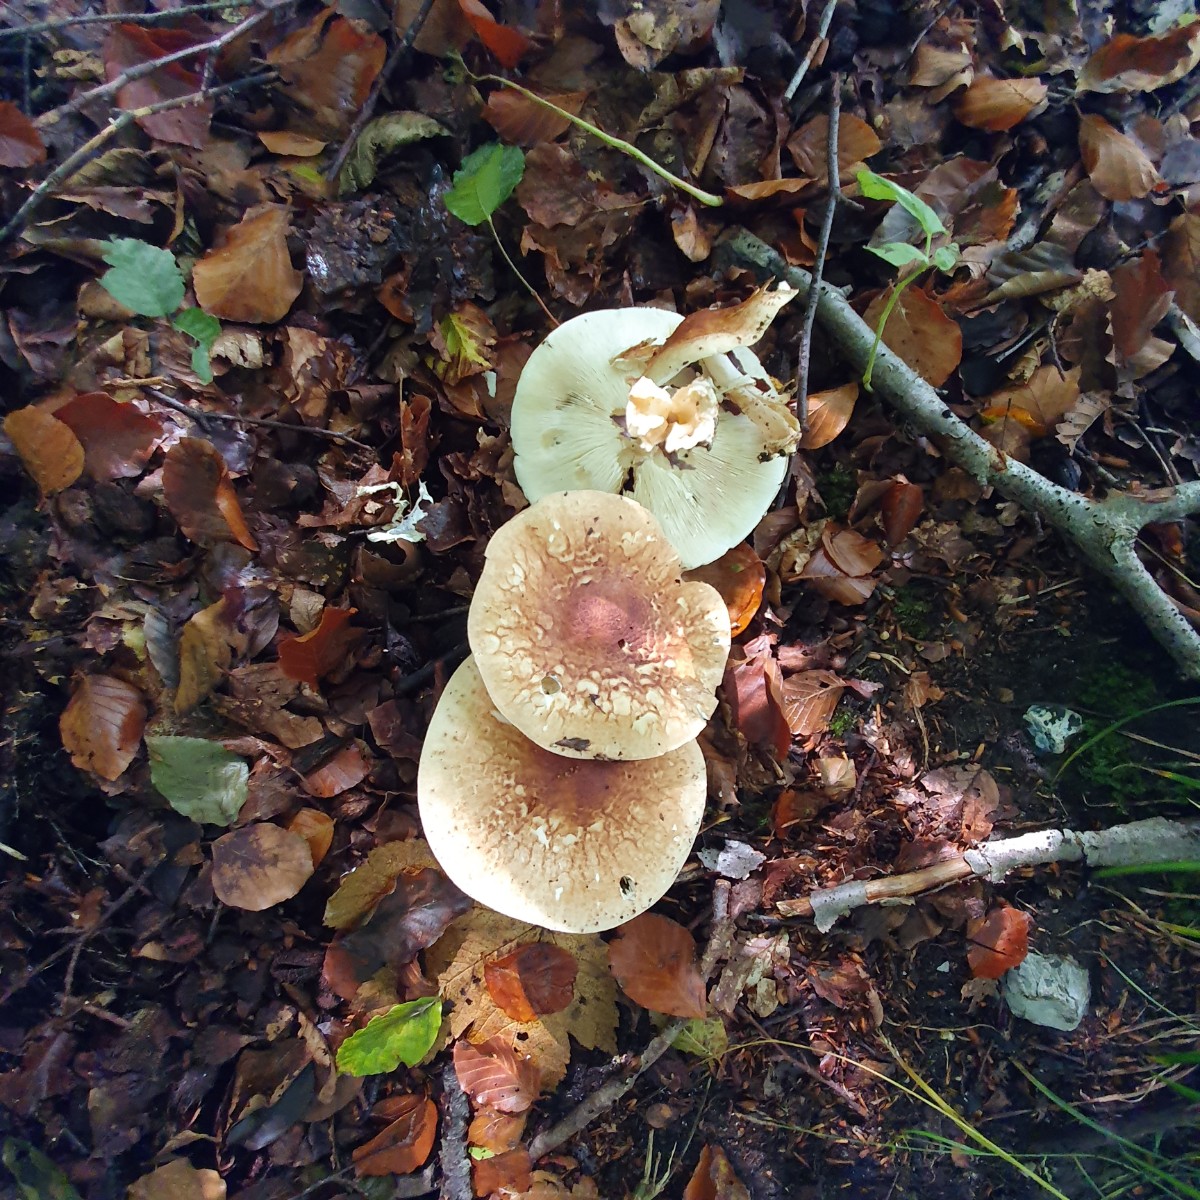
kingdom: Fungi
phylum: Basidiomycota
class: Agaricomycetes
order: Agaricales
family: Agaricaceae
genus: Leucocoprinus
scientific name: Leucocoprinus straminellus
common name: rustbrun parasolhat
